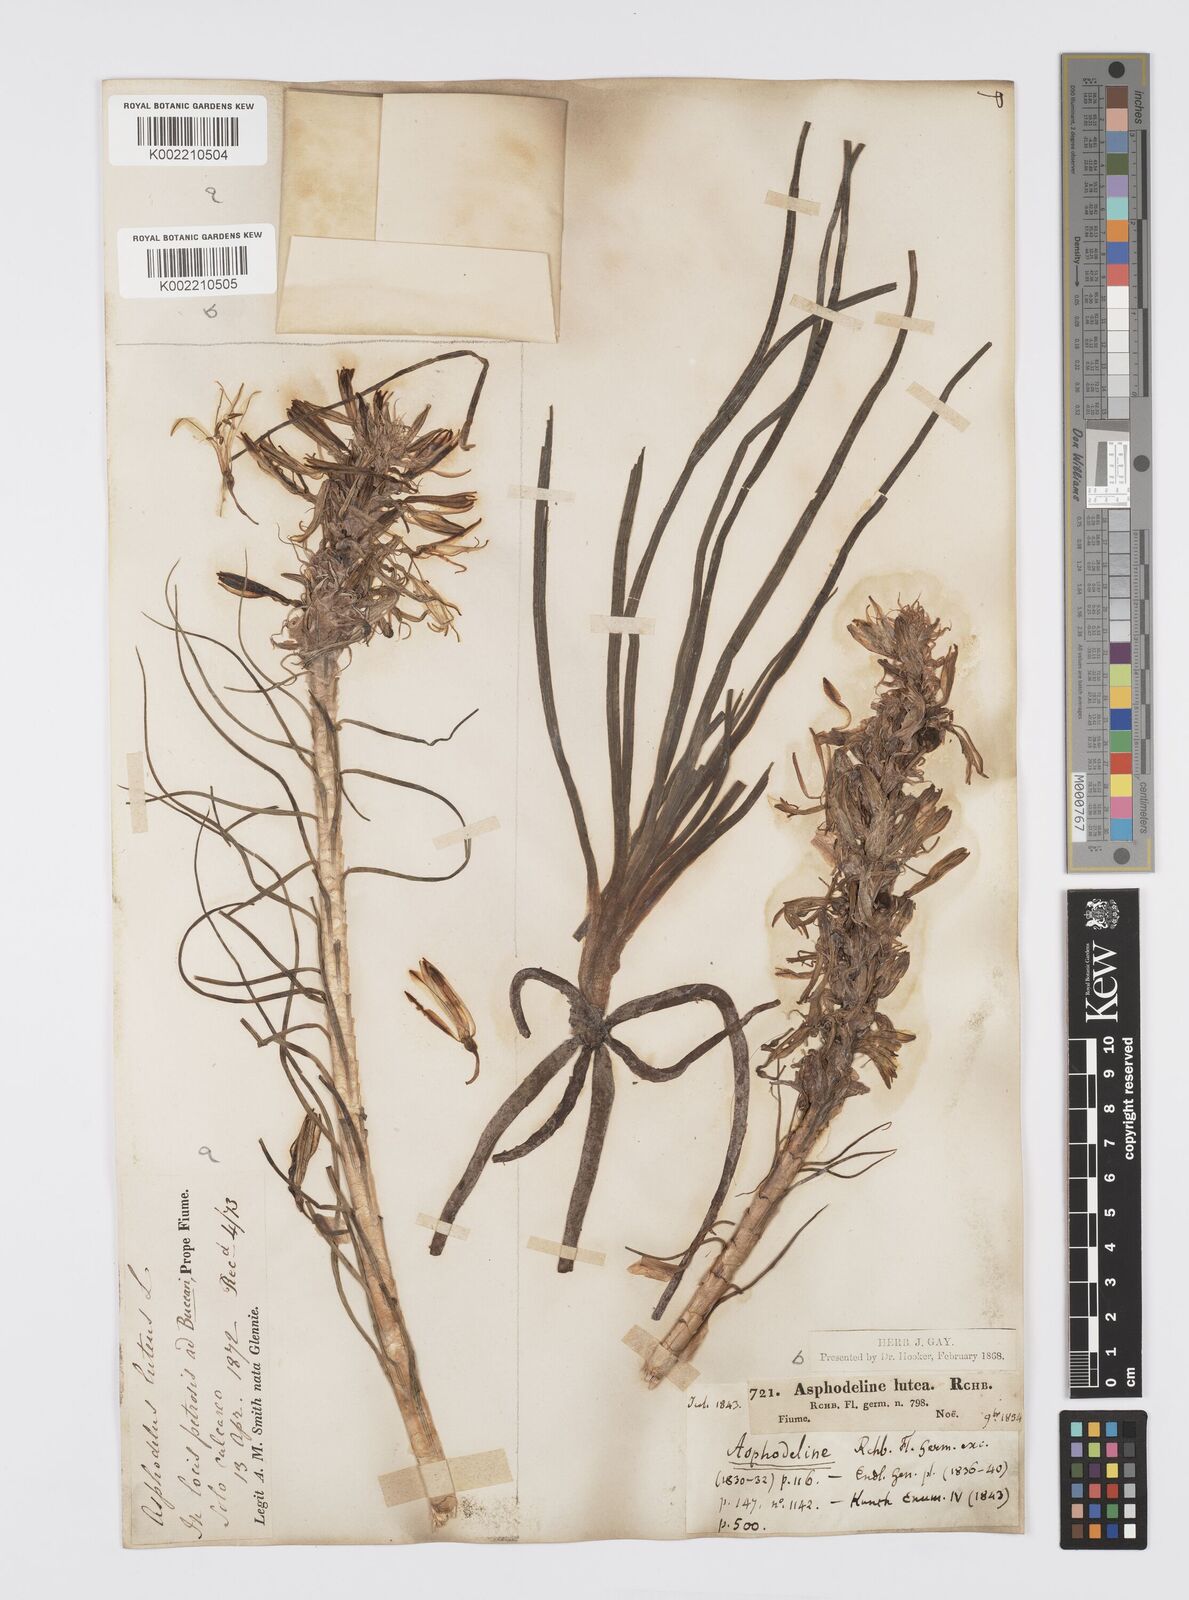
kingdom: Plantae
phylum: Tracheophyta
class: Liliopsida
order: Asparagales
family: Asphodelaceae
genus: Asphodeline
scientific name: Asphodeline lutea
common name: Yellow asphodel
